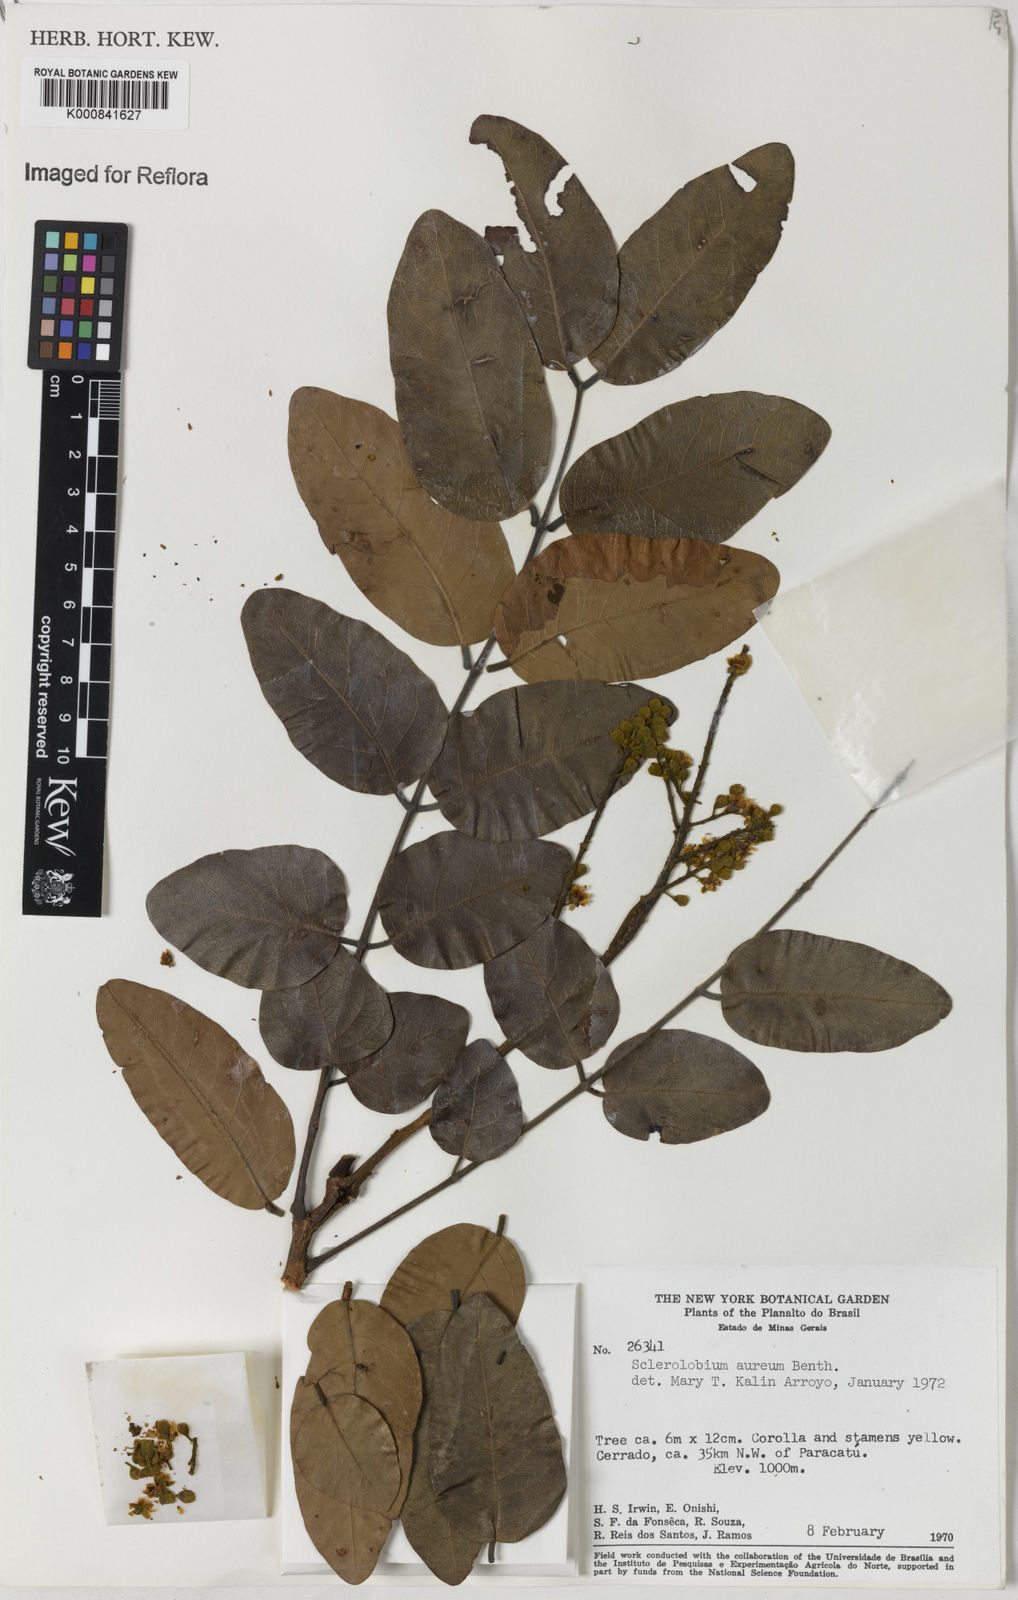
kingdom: Plantae
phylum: Tracheophyta
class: Magnoliopsida
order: Fabales
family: Fabaceae
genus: Tachigali
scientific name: Tachigali aurea
